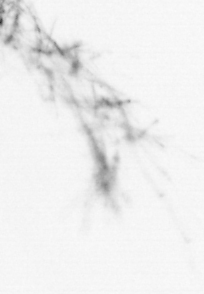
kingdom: Animalia
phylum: Chordata
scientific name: Chordata
